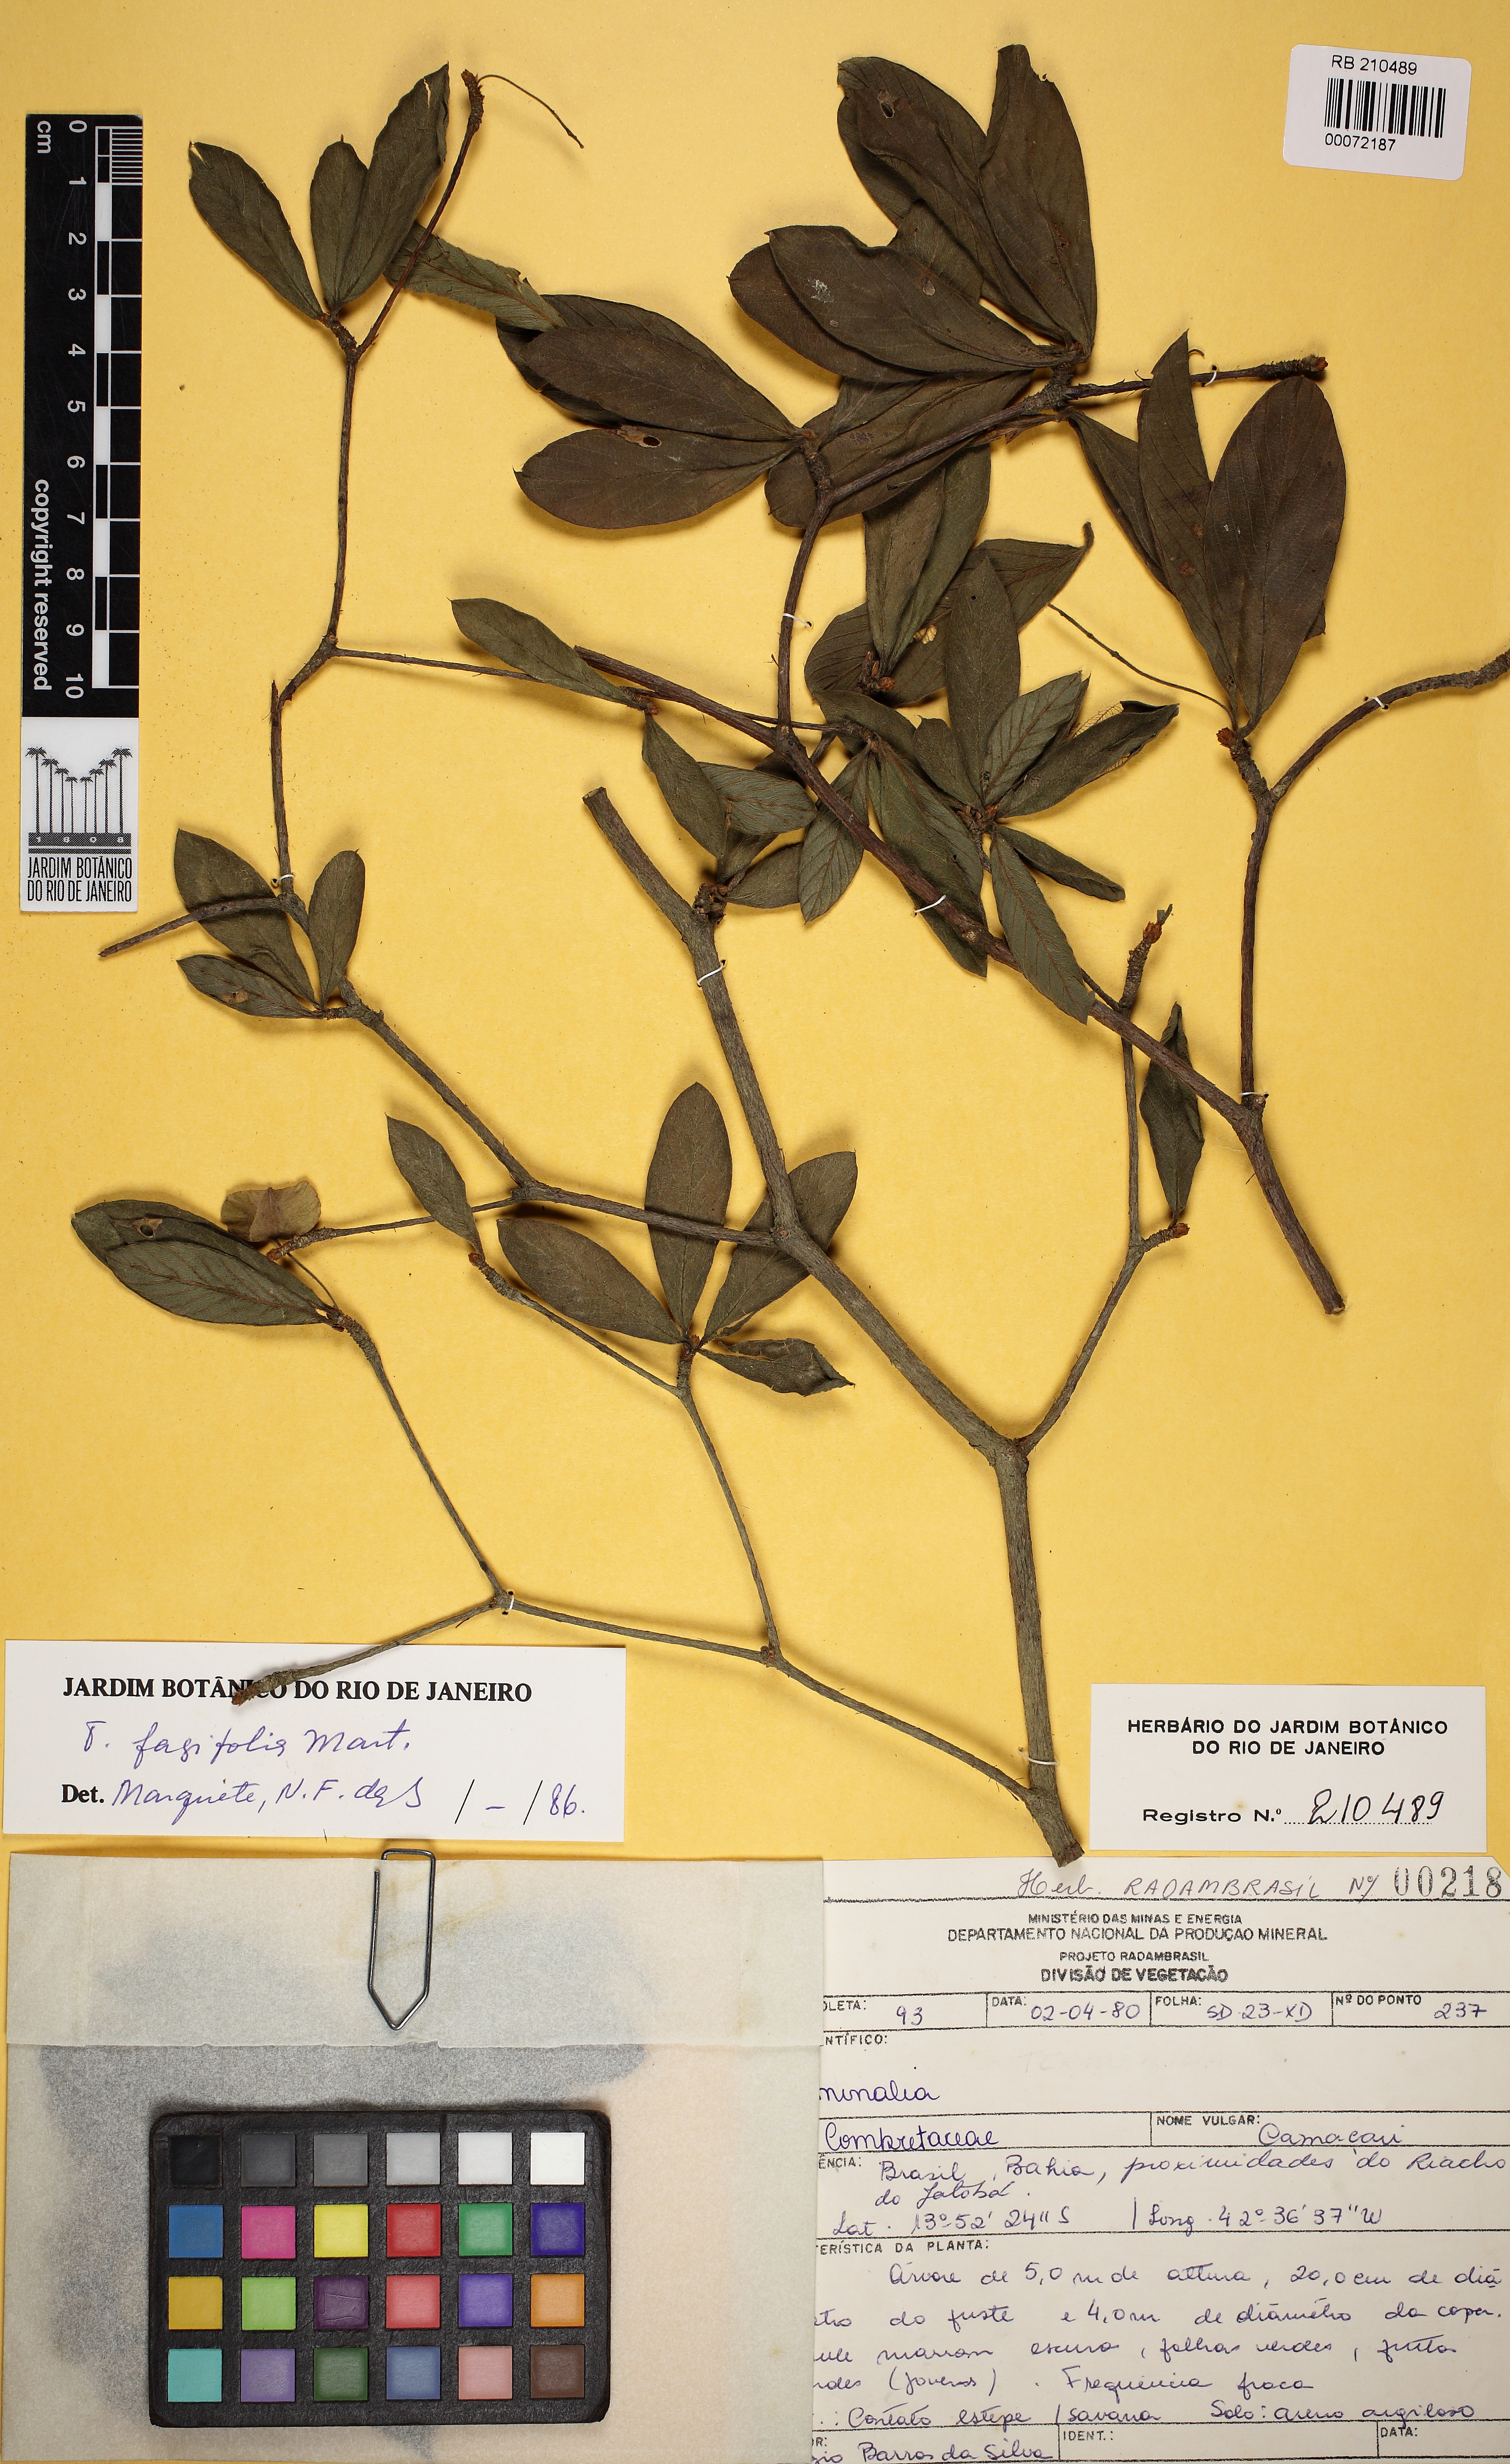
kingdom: Plantae
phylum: Tracheophyta
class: Magnoliopsida
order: Myrtales
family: Combretaceae
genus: Terminalia
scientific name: Terminalia fagifolia
